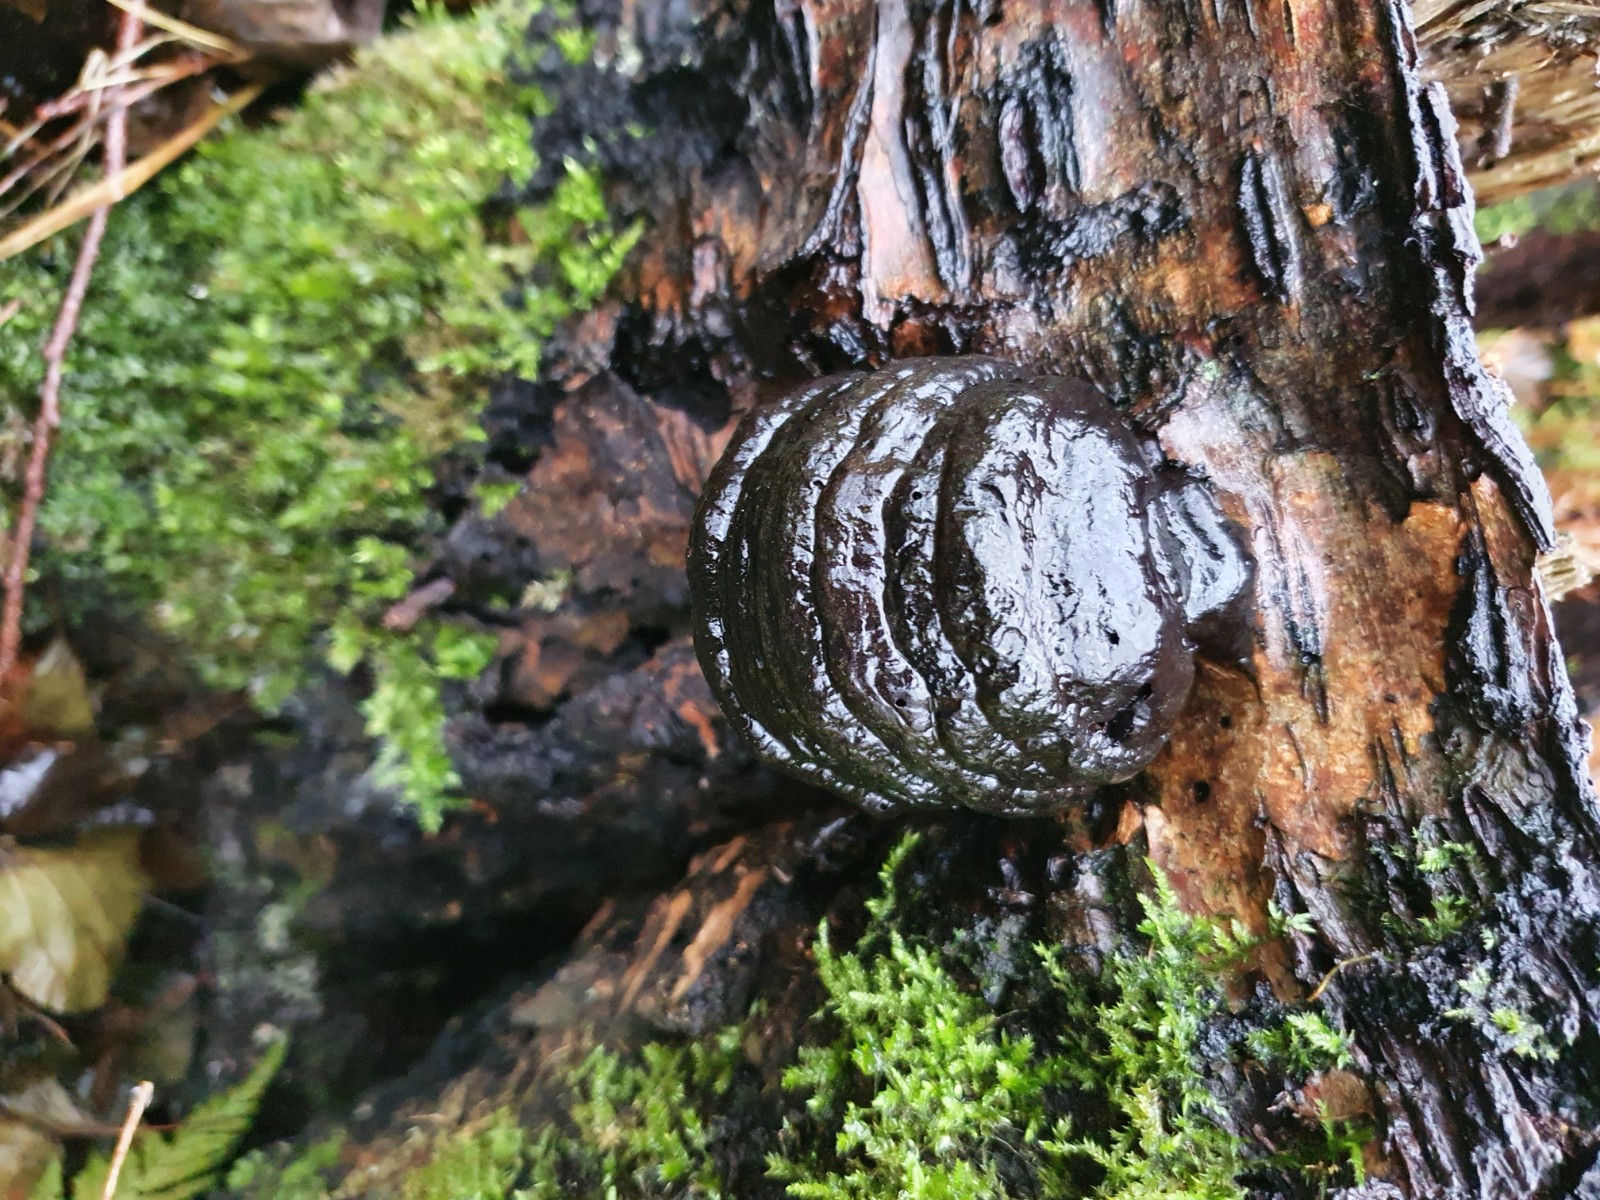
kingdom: Fungi
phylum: Basidiomycota
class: Agaricomycetes
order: Polyporales
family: Polyporaceae
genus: Fomes
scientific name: Fomes fomentarius
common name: tøndersvamp
